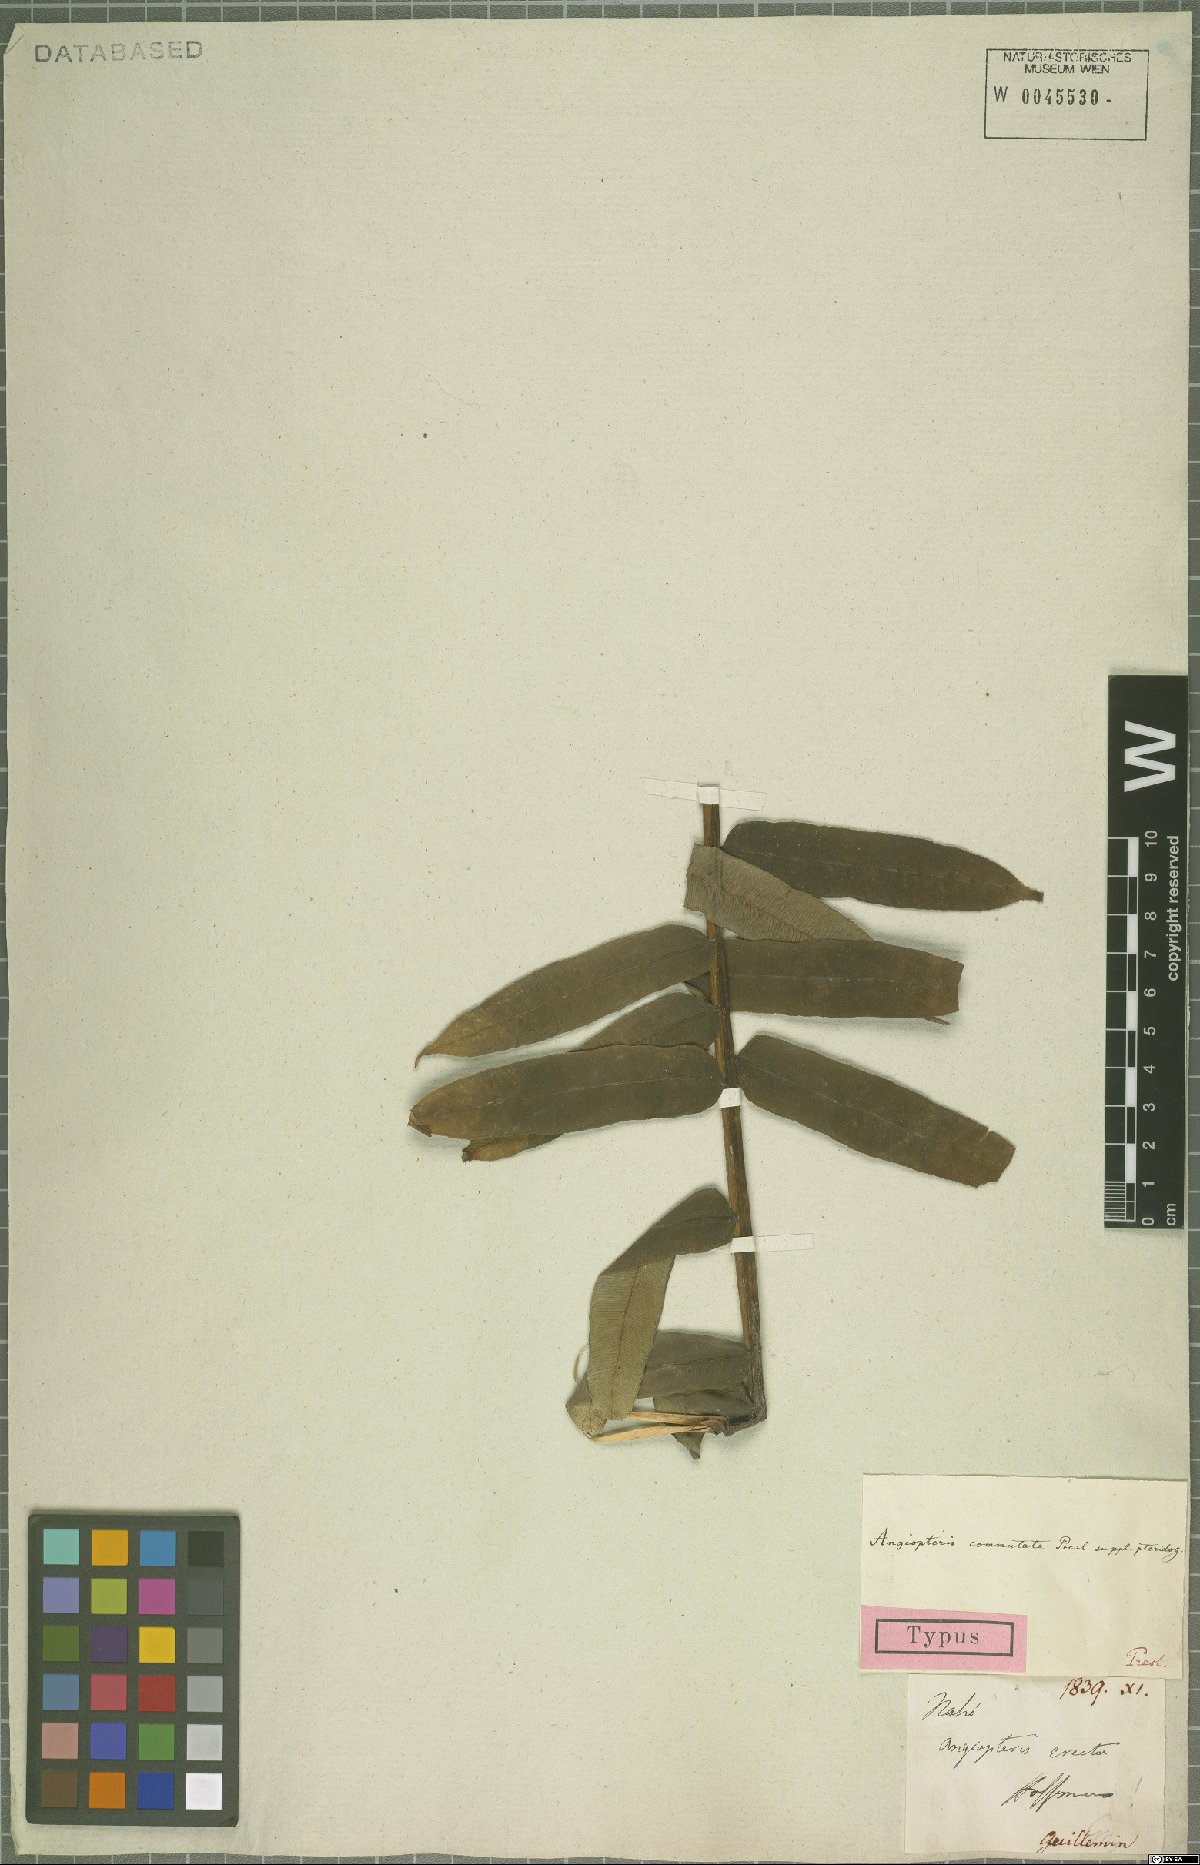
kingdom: Plantae
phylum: Tracheophyta
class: Polypodiopsida
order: Marattiales
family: Marattiaceae
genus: Angiopteris
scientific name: Angiopteris evecta
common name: Mule's-foot fern
